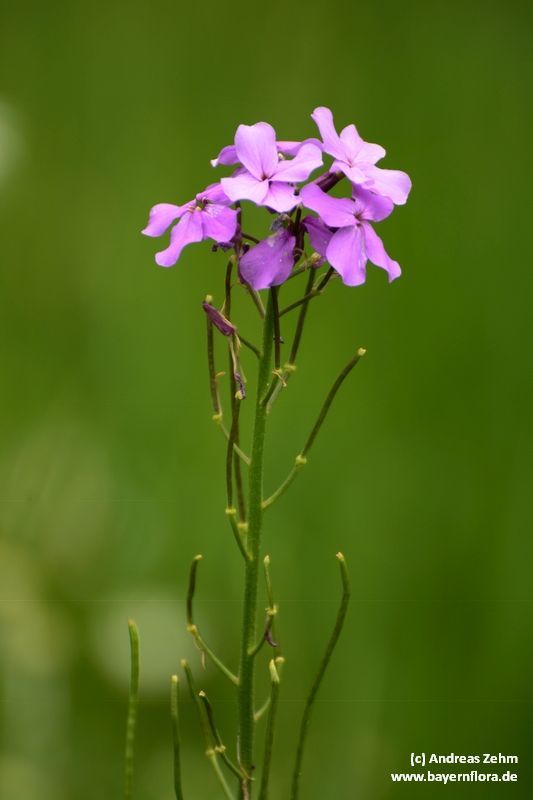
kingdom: Plantae
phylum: Tracheophyta
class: Magnoliopsida
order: Brassicales
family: Brassicaceae
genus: Matthiola
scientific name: Matthiola incana
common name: Hoary stock
